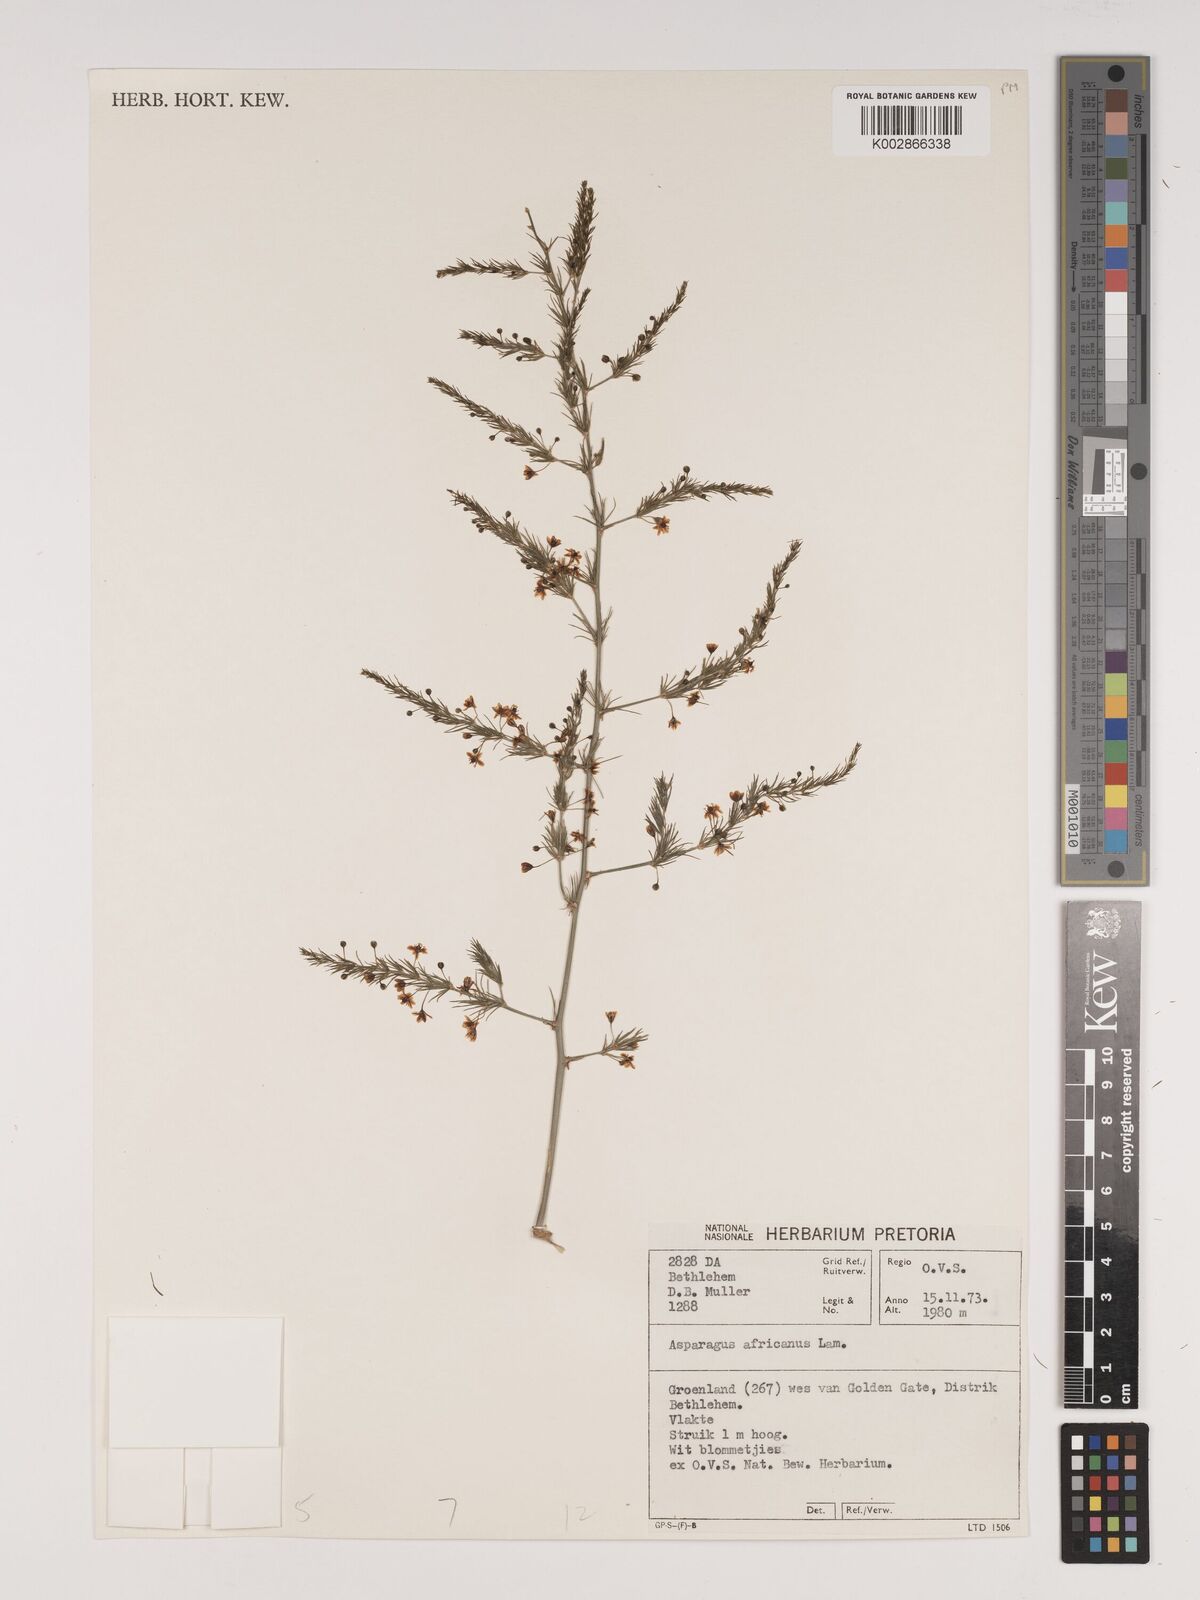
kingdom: Plantae
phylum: Tracheophyta
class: Liliopsida
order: Asparagales
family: Asparagaceae
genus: Asparagus
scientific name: Asparagus africanus
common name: Asparagus-fern
